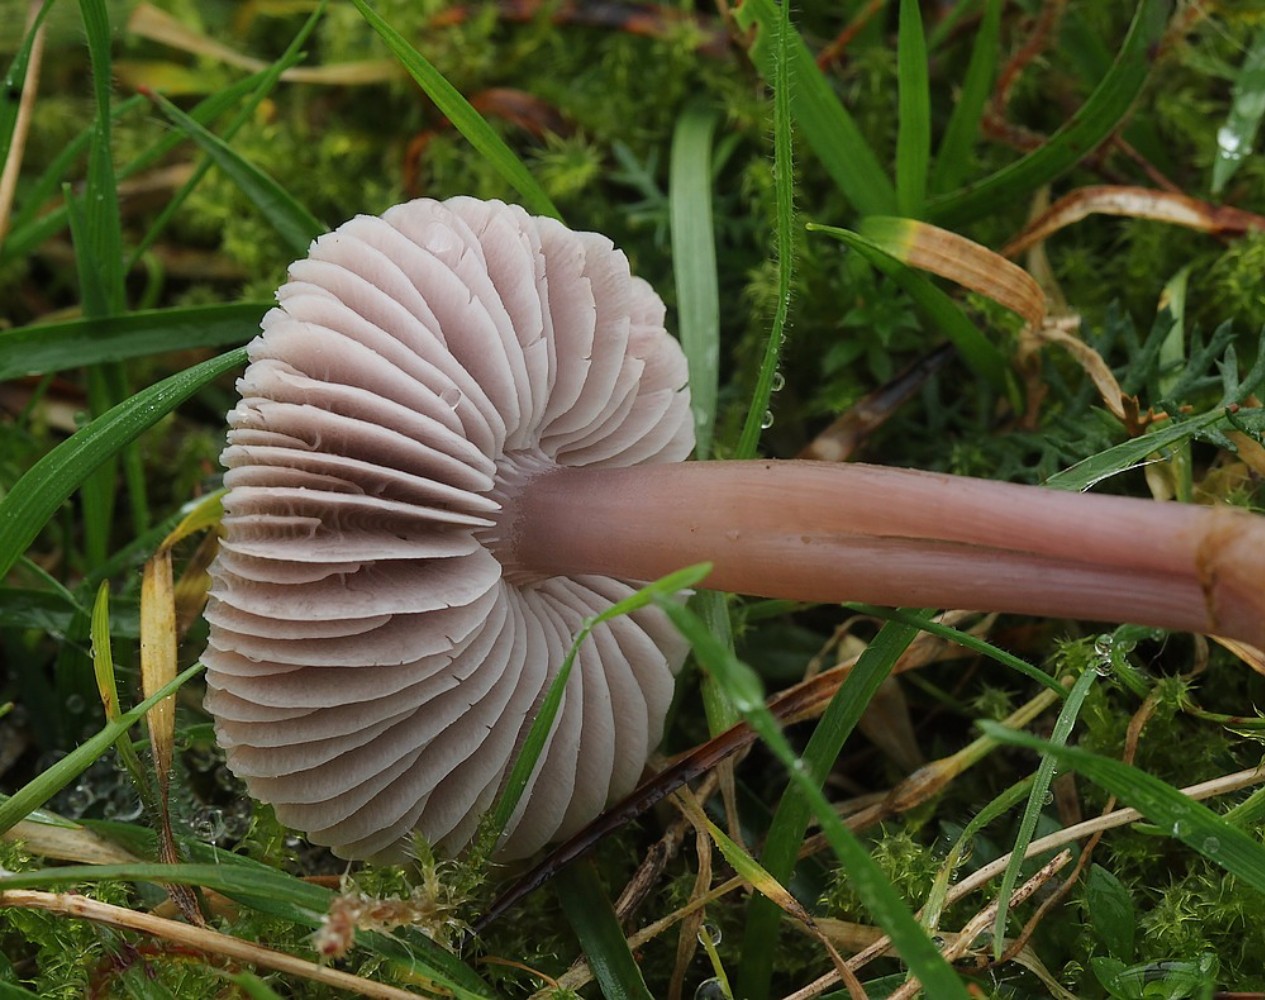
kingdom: Fungi
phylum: Basidiomycota
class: Agaricomycetes
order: Agaricales
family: Mycenaceae
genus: Mycena
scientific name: Mycena luteovariegata
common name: lillagul huesvamp
